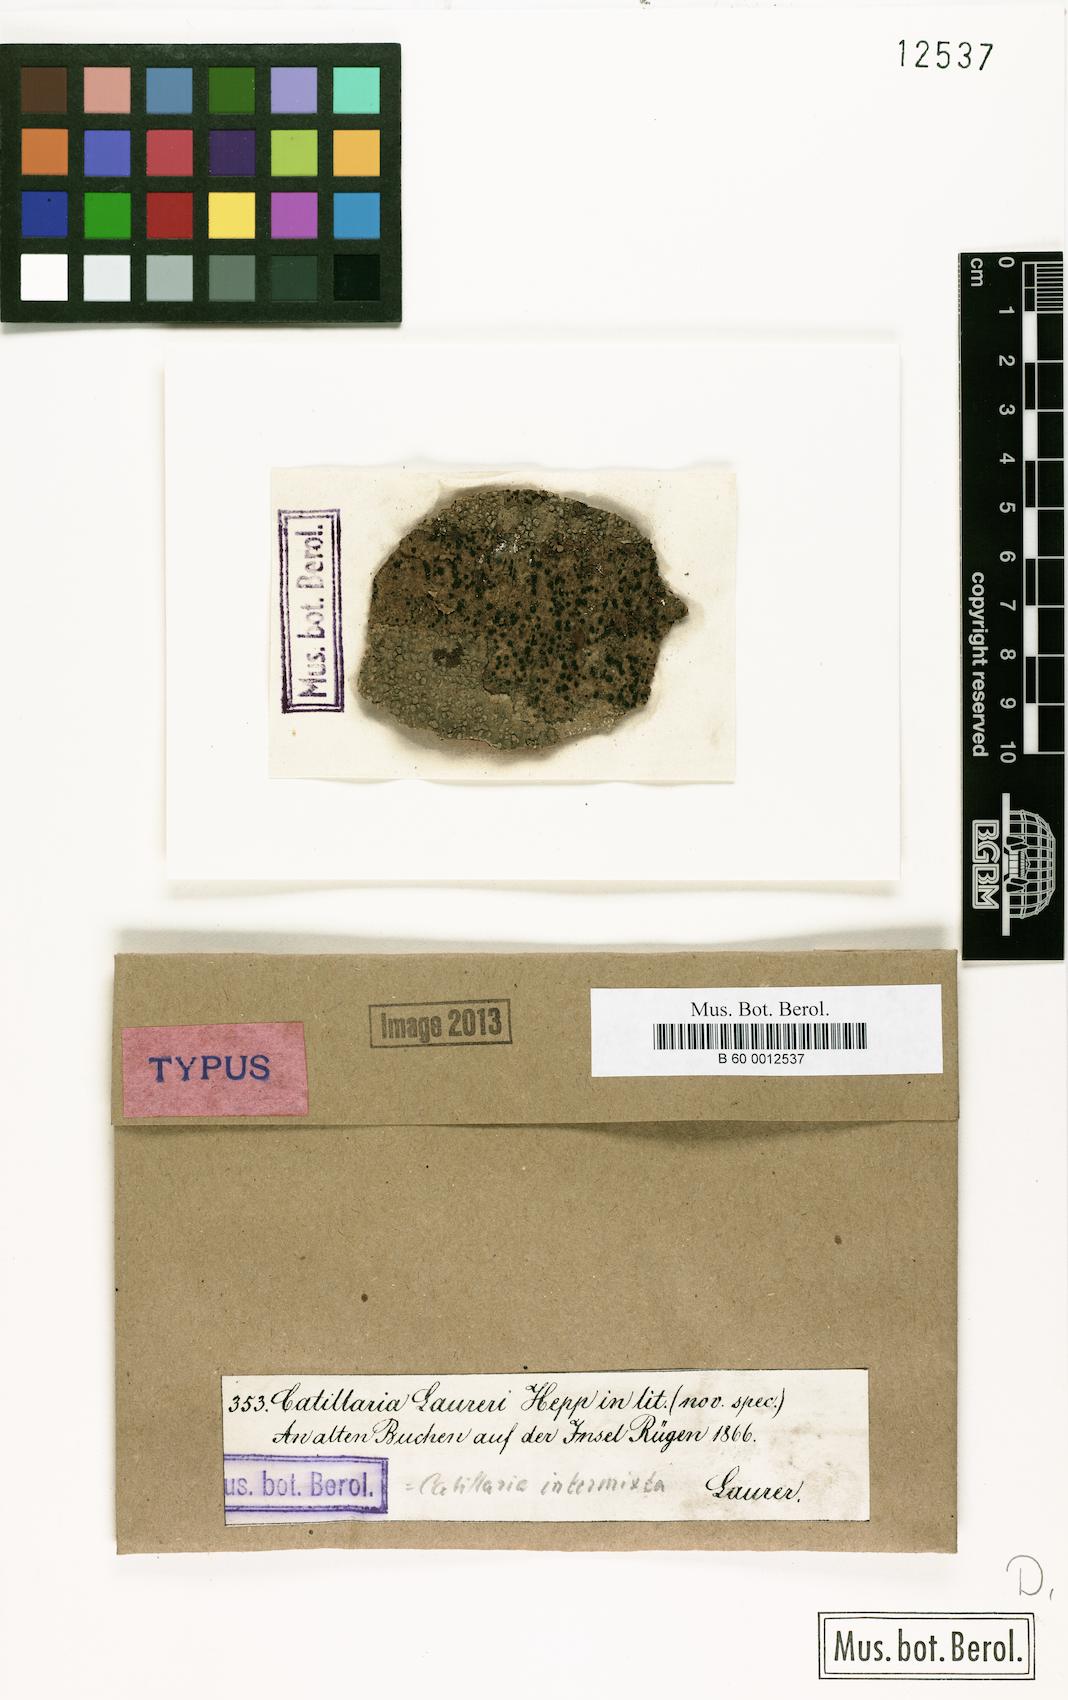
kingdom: Fungi
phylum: Ascomycota
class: Lecanoromycetes
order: Lecanorales
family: Catillariaceae
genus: Catillaria
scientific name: Catillaria
